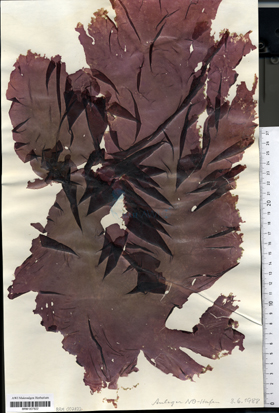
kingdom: Plantae
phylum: Rhodophyta
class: Bangiophyceae
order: Bangiales
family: Bangiaceae
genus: Porphyra
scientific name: Porphyra umbilicalis
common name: Purple laver
